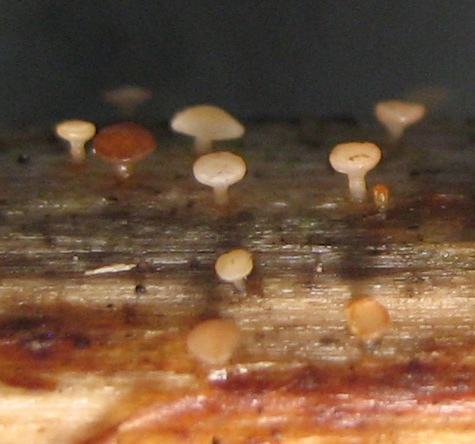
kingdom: Fungi
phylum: Ascomycota
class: Leotiomycetes
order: Helotiales
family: Helotiaceae
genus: Hymenoscyphus
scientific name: Hymenoscyphus
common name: stilkskive
